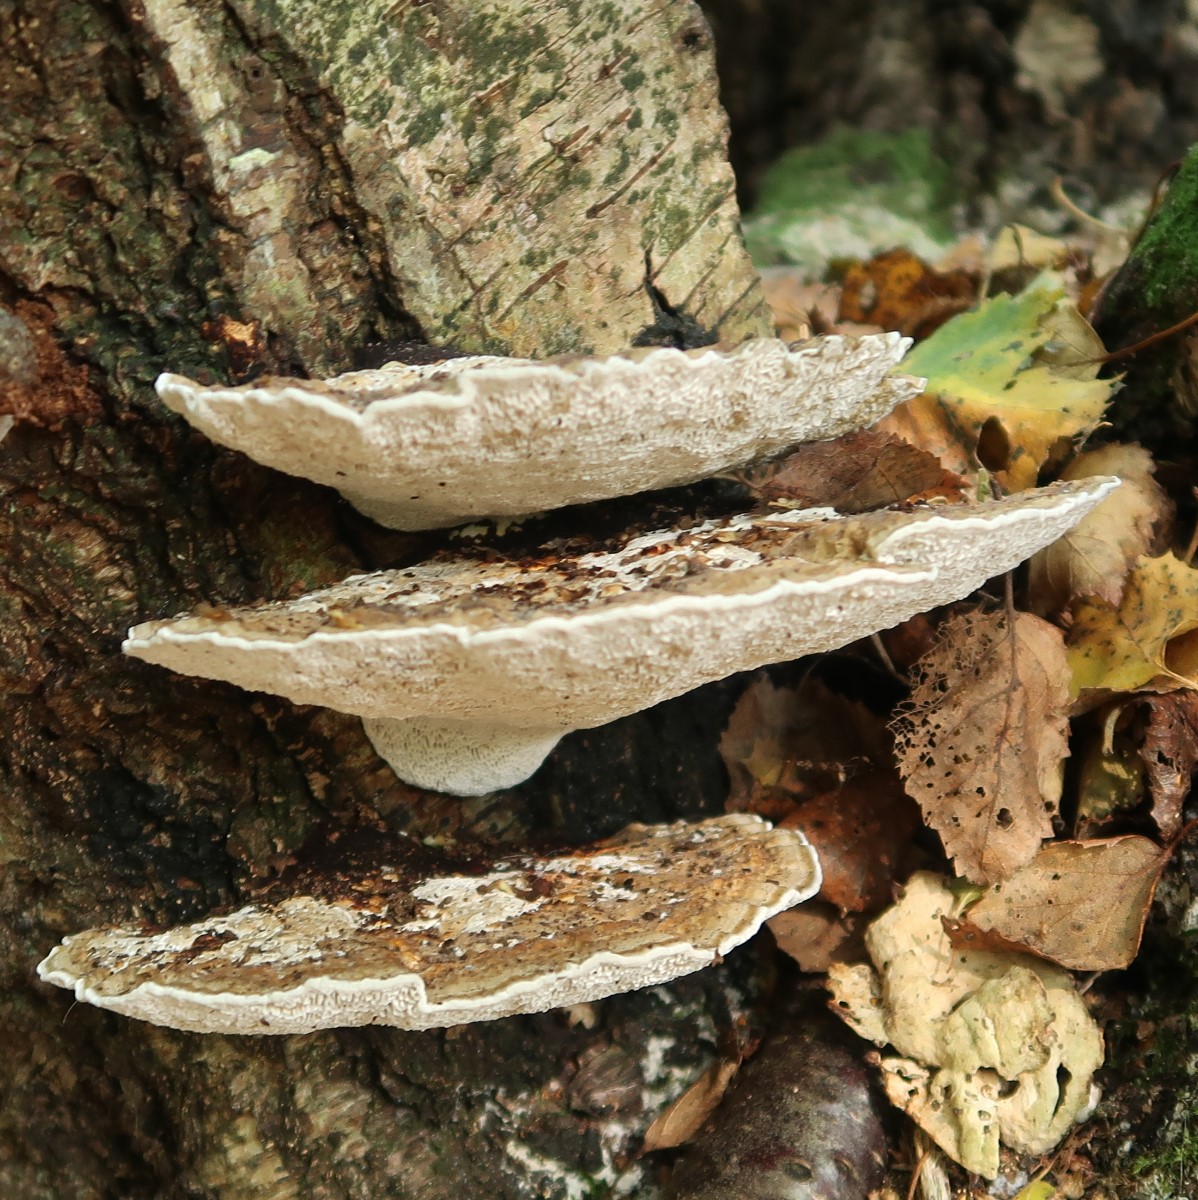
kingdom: Fungi
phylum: Basidiomycota
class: Agaricomycetes
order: Polyporales
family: Polyporaceae
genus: Daedaleopsis
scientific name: Daedaleopsis confragosa
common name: rødmende læderporesvamp
